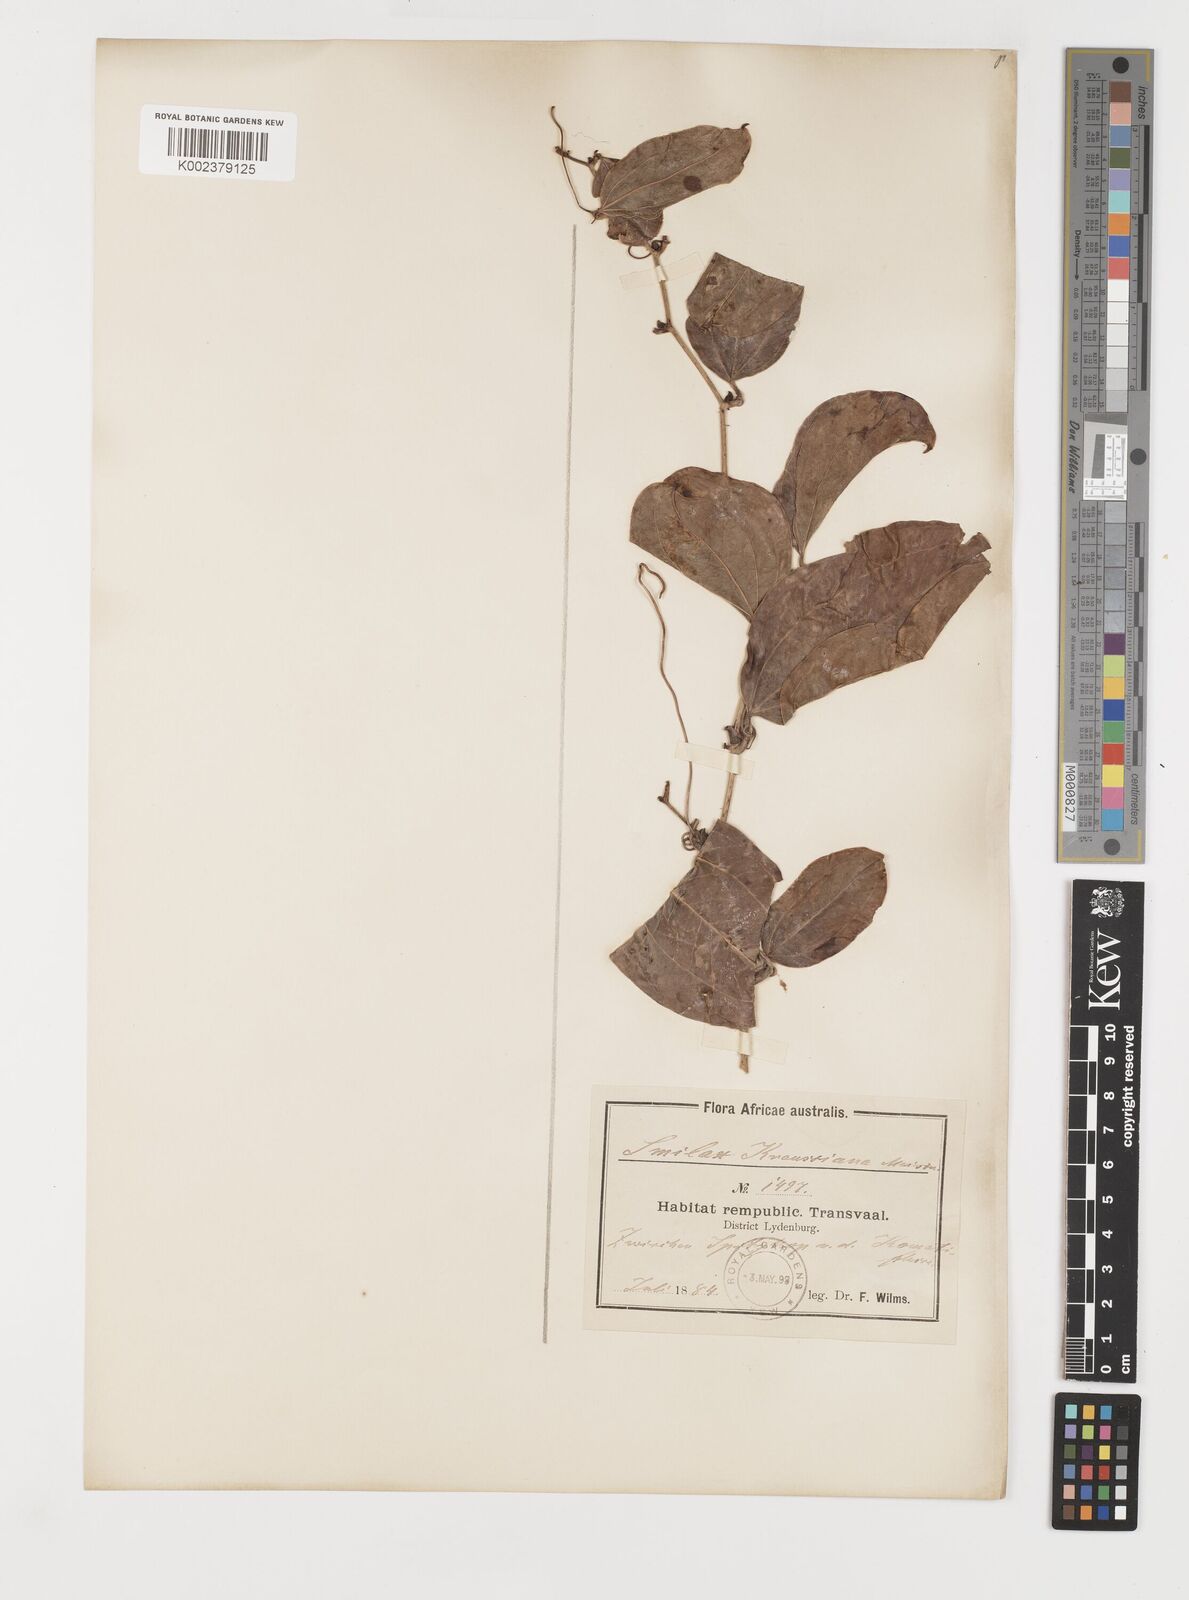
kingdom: Plantae
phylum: Tracheophyta
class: Liliopsida
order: Liliales
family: Smilacaceae
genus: Smilax
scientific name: Smilax anceps
